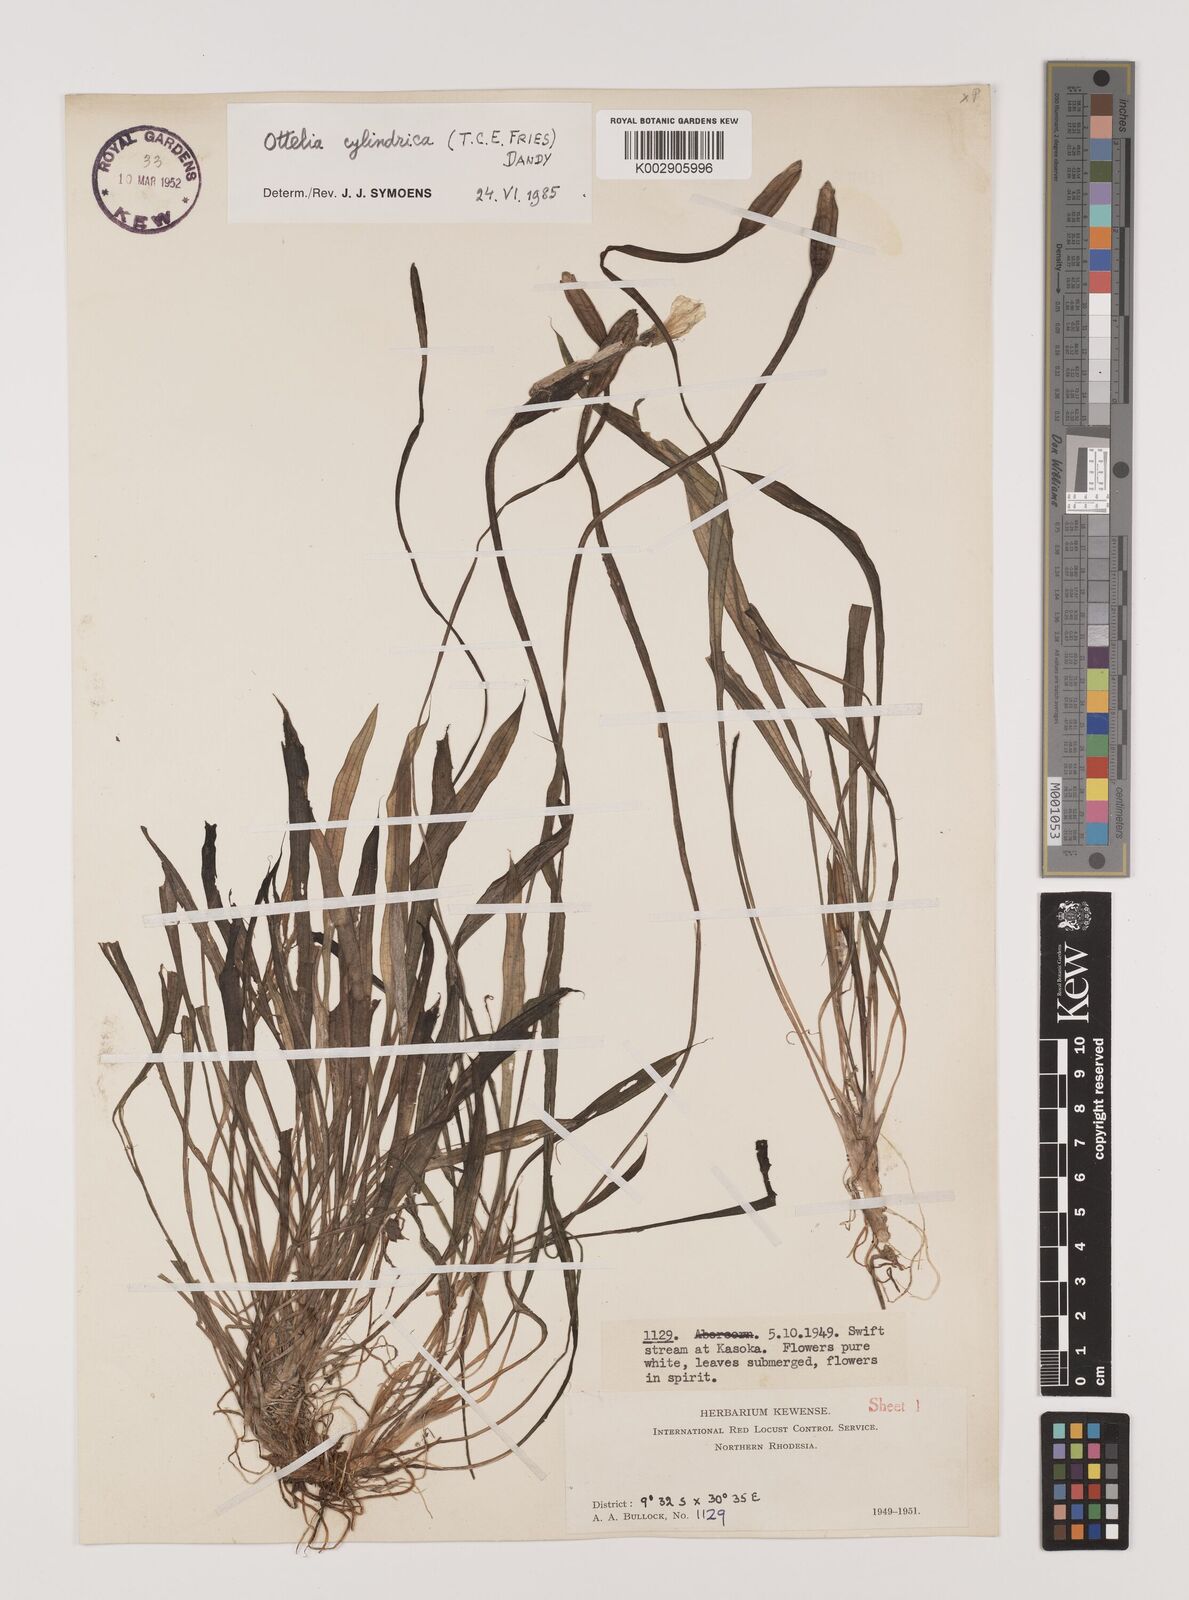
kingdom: Plantae
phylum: Tracheophyta
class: Liliopsida
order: Alismatales
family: Hydrocharitaceae
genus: Ottelia
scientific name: Ottelia cylindrica
